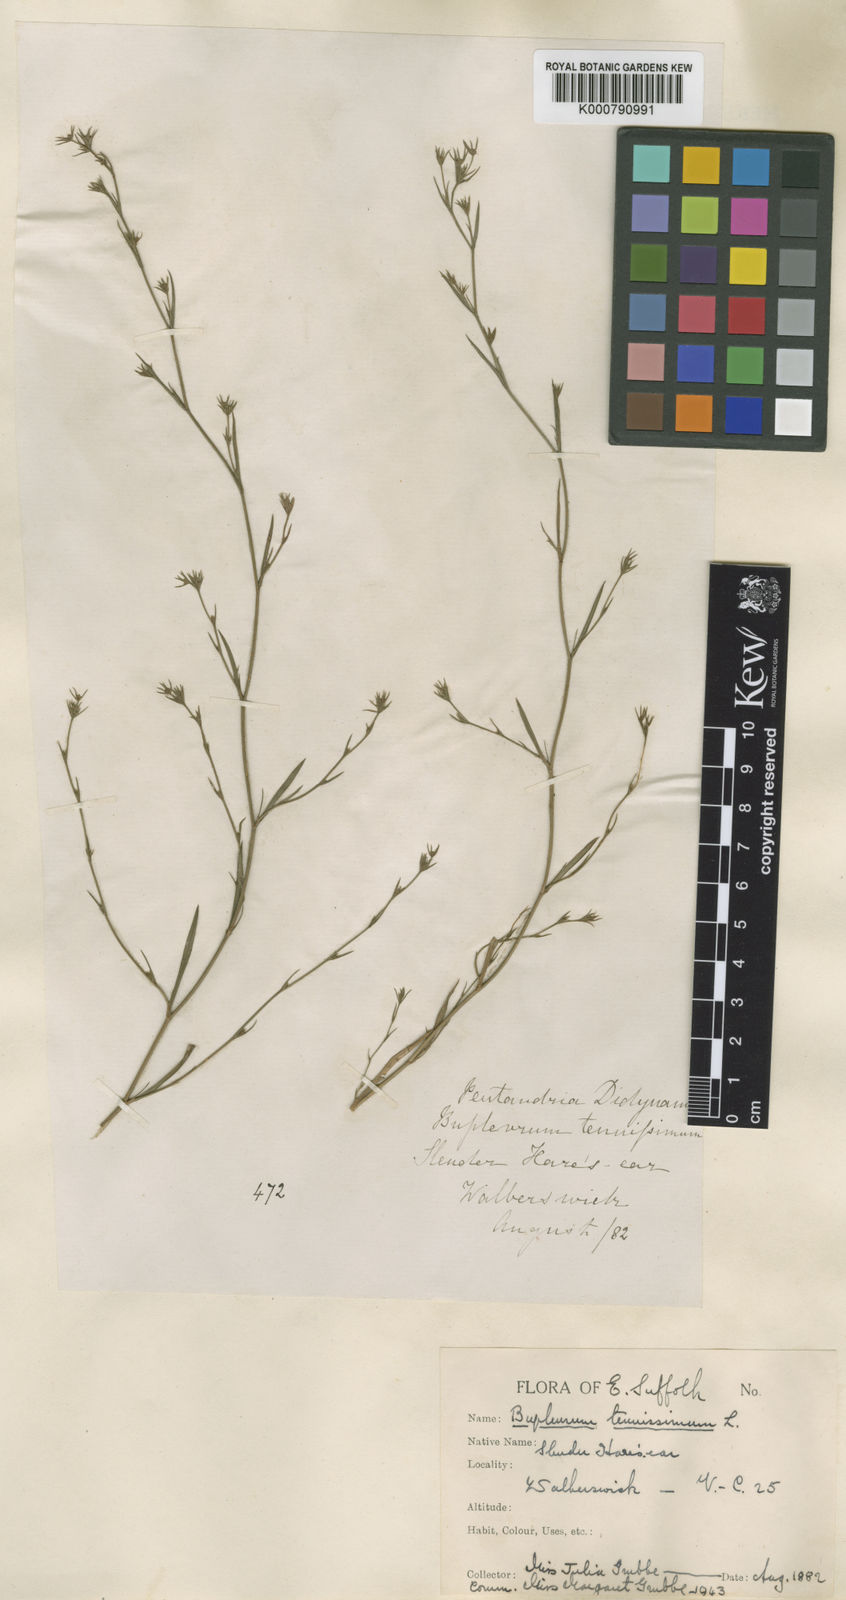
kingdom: Plantae
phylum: Tracheophyta
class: Magnoliopsida
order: Apiales
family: Apiaceae
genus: Bupleurum
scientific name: Bupleurum tenuissimum
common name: Slender hare's-ear
